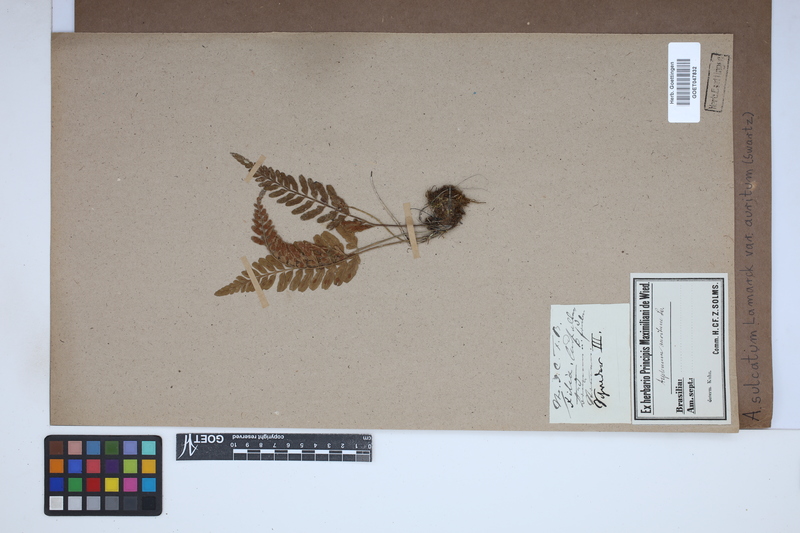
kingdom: Plantae
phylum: Tracheophyta
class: Polypodiopsida
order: Polypodiales
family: Aspleniaceae
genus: Asplenium
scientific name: Asplenium auritum
